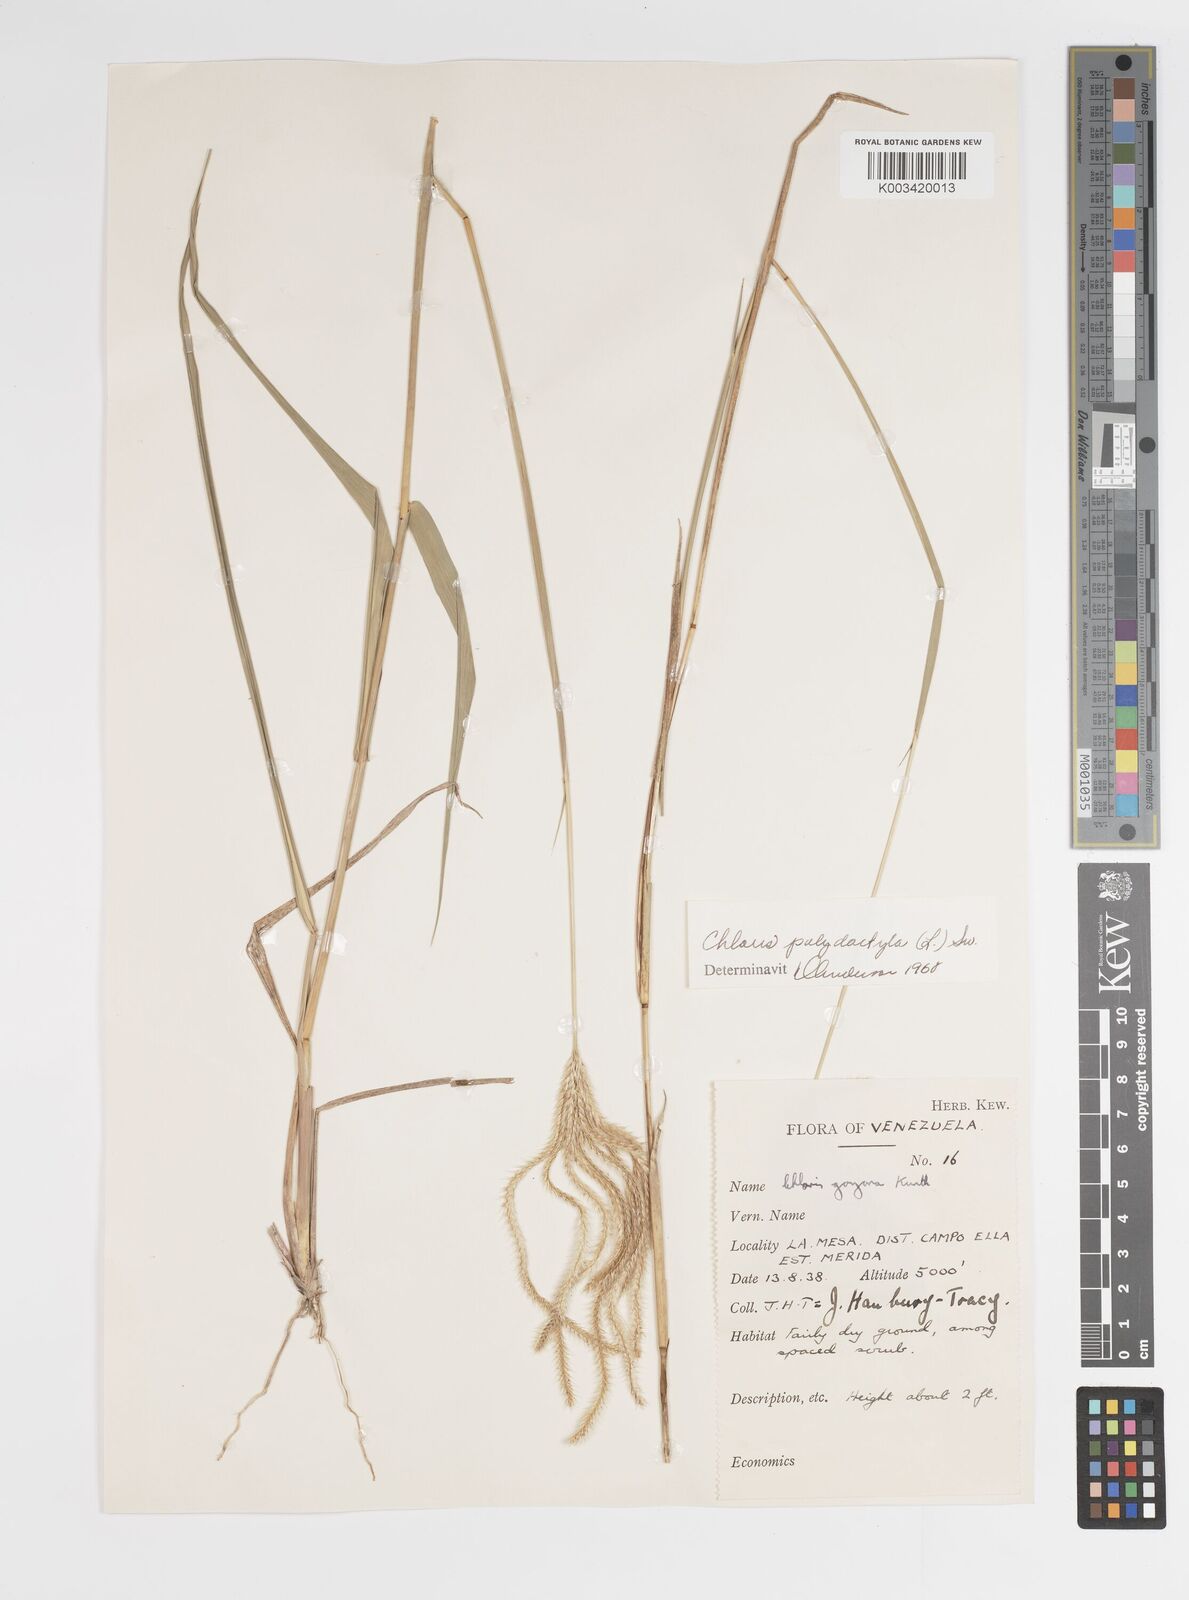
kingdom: Plantae
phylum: Tracheophyta
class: Liliopsida
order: Poales
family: Poaceae
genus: Stapfochloa
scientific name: Stapfochloa elata
